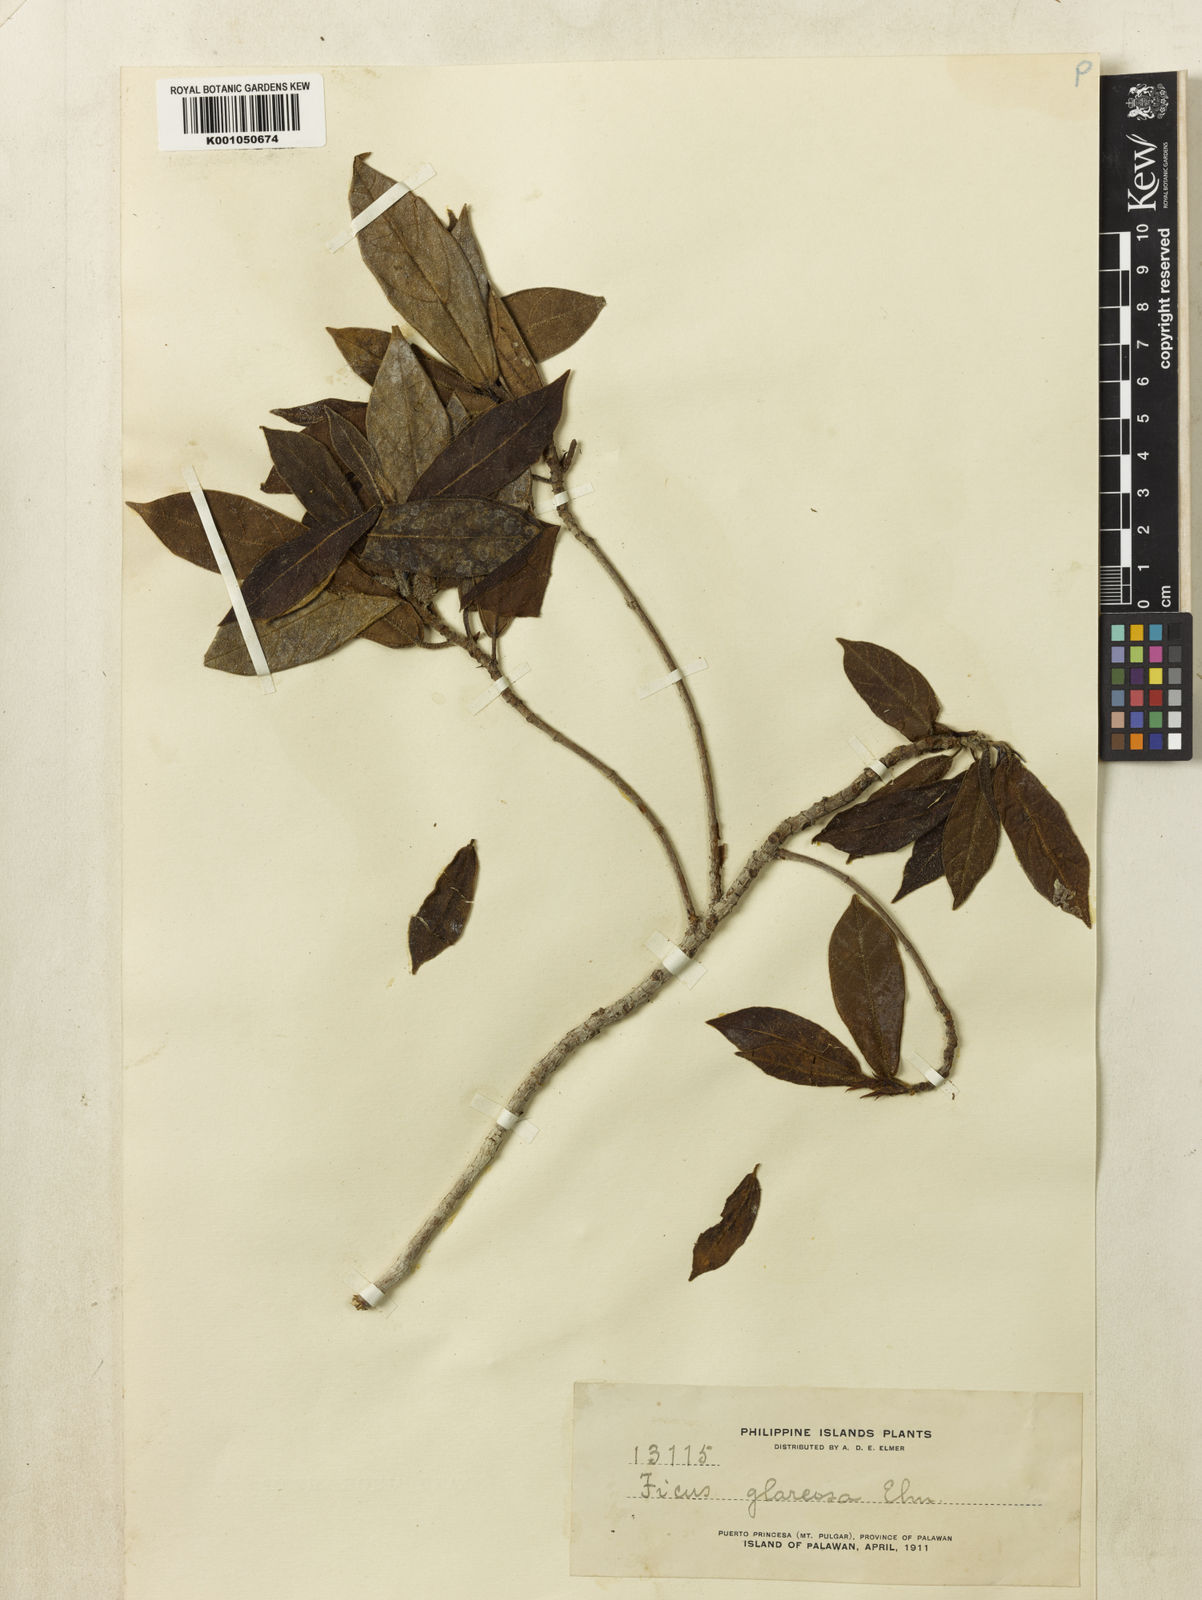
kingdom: Plantae
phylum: Tracheophyta
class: Magnoliopsida
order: Rosales
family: Moraceae
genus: Ficus
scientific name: Ficus glareosa
